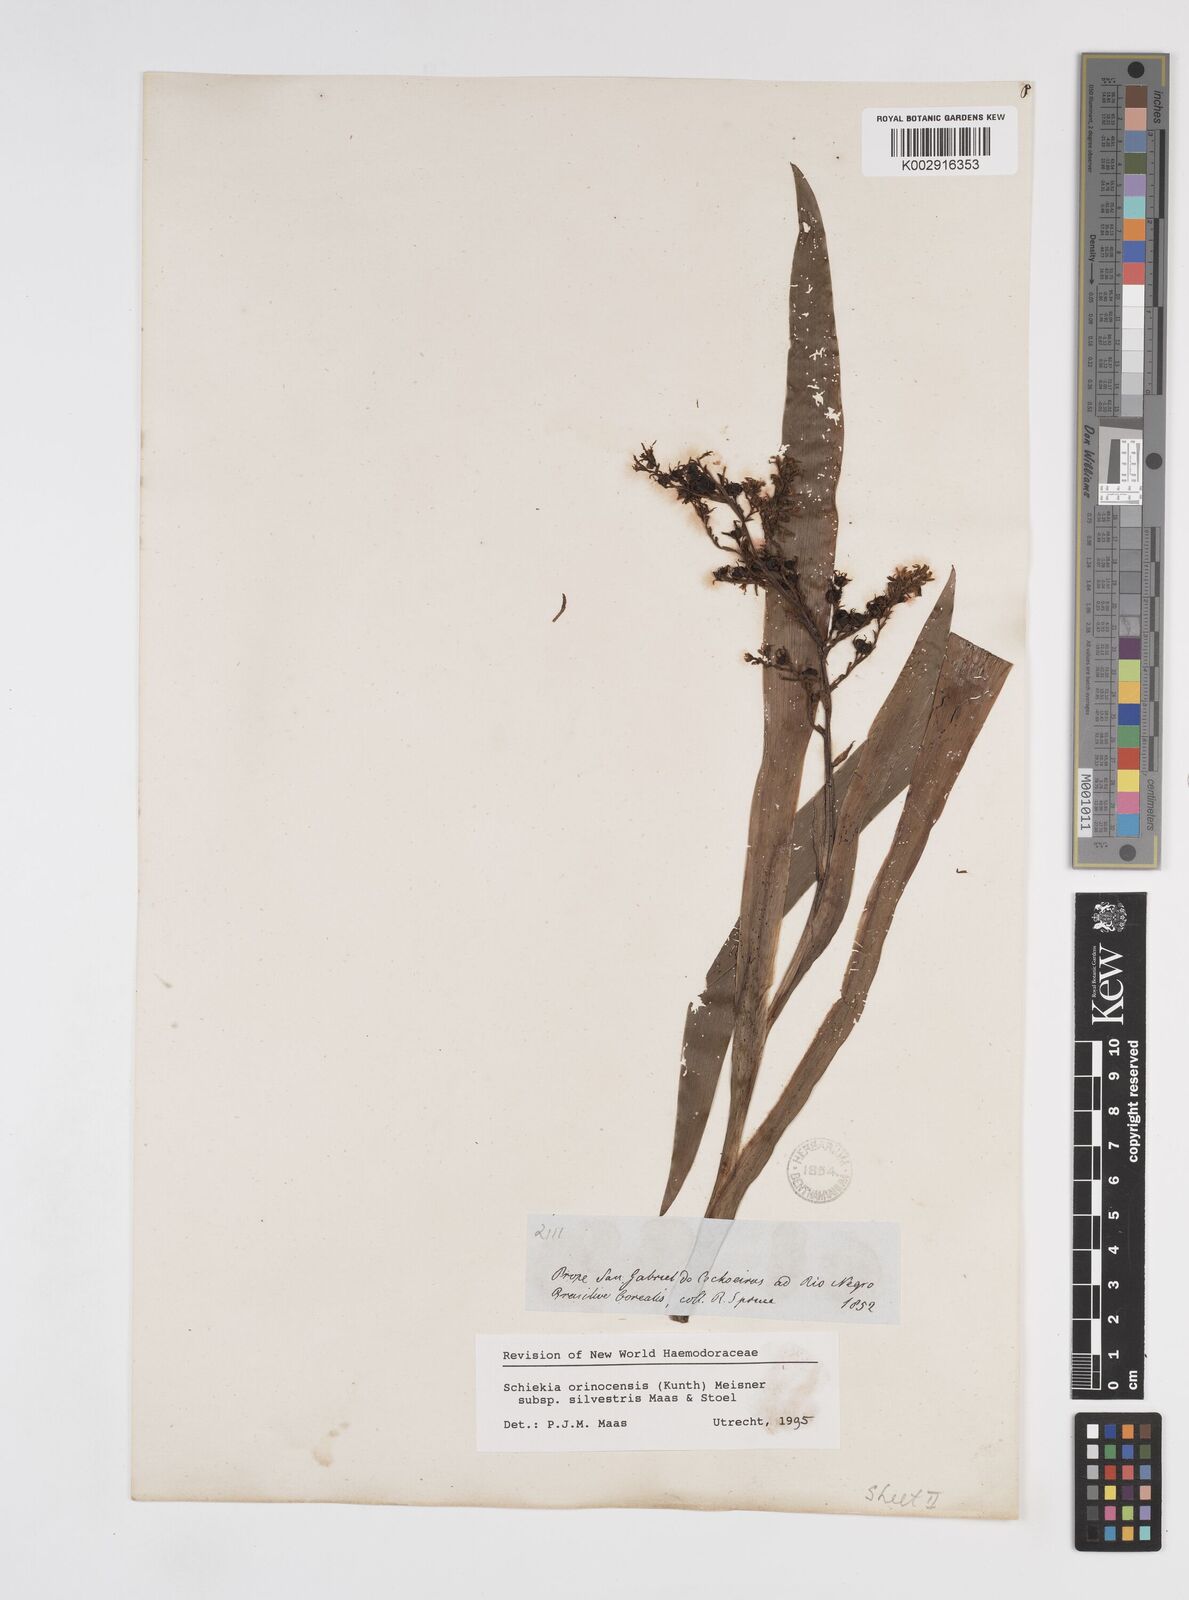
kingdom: Plantae
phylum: Tracheophyta
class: Liliopsida
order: Commelinales
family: Haemodoraceae
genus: Schiekia
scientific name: Schiekia silvestris
